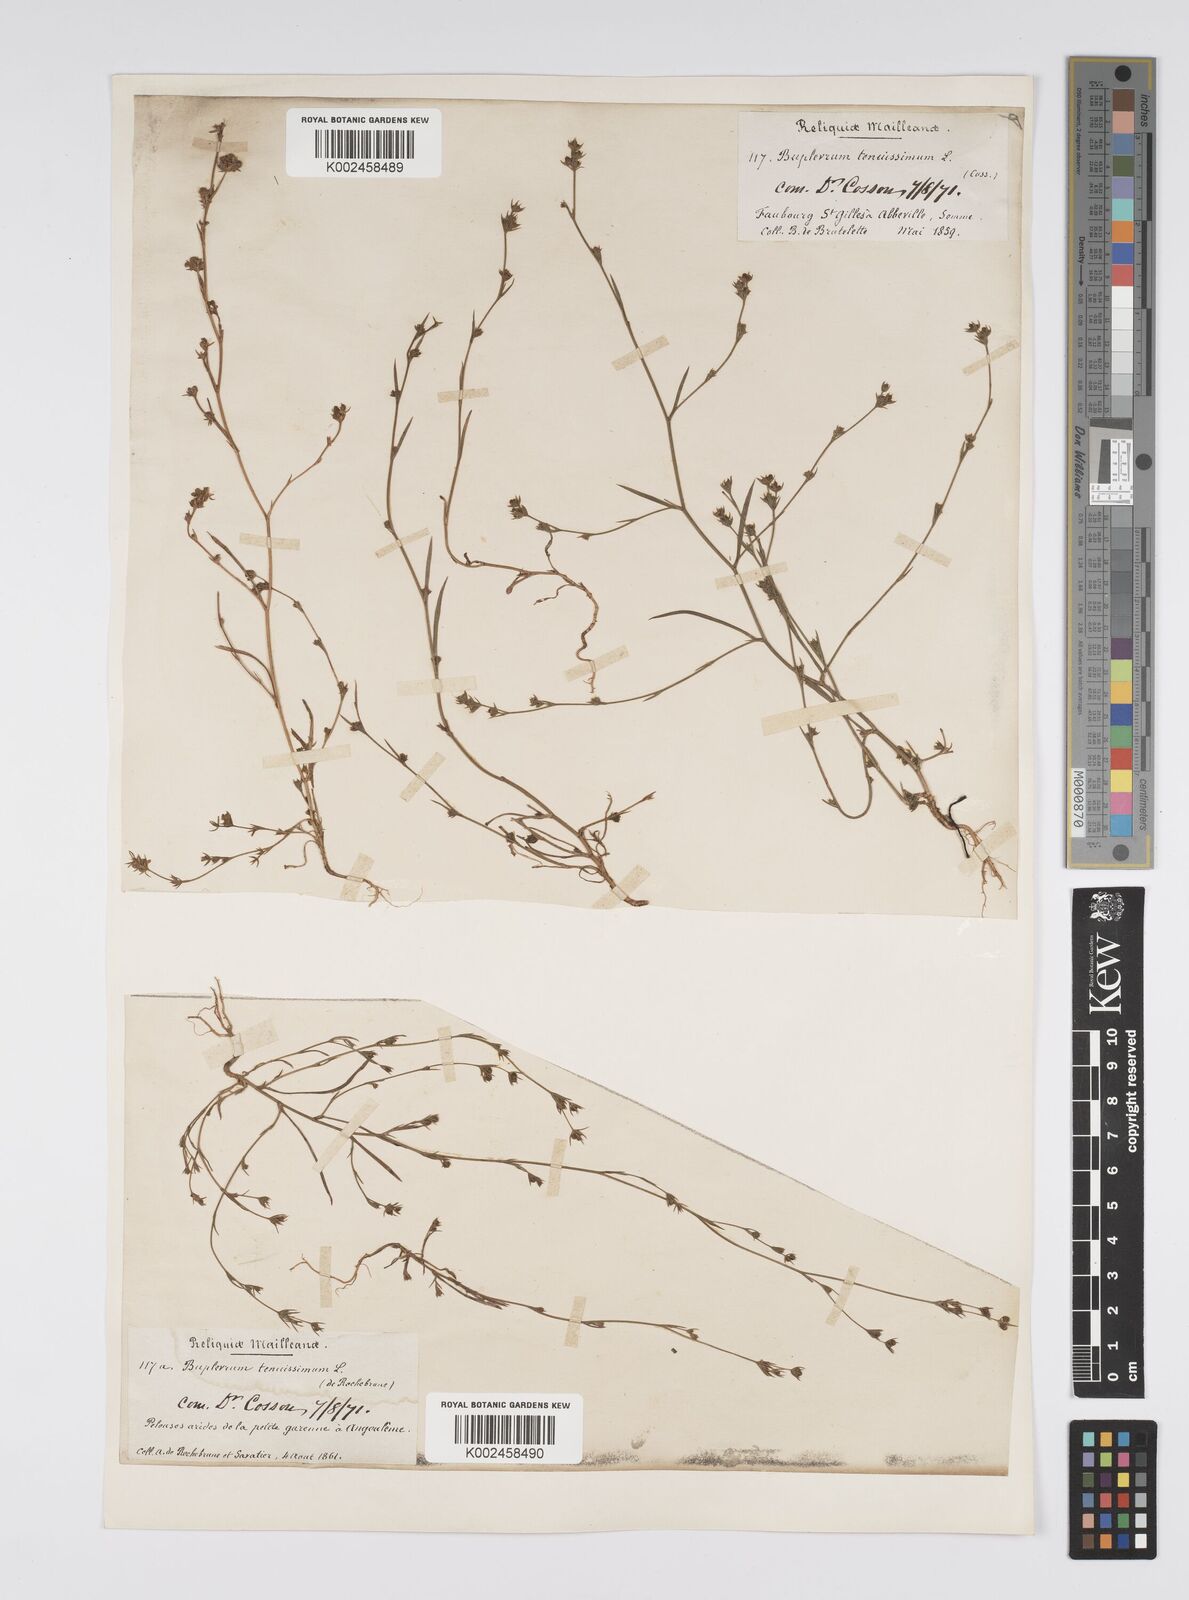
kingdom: Plantae
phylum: Tracheophyta
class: Magnoliopsida
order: Apiales
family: Apiaceae
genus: Bupleurum
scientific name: Bupleurum tenuissimum
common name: Slender hare's-ear
